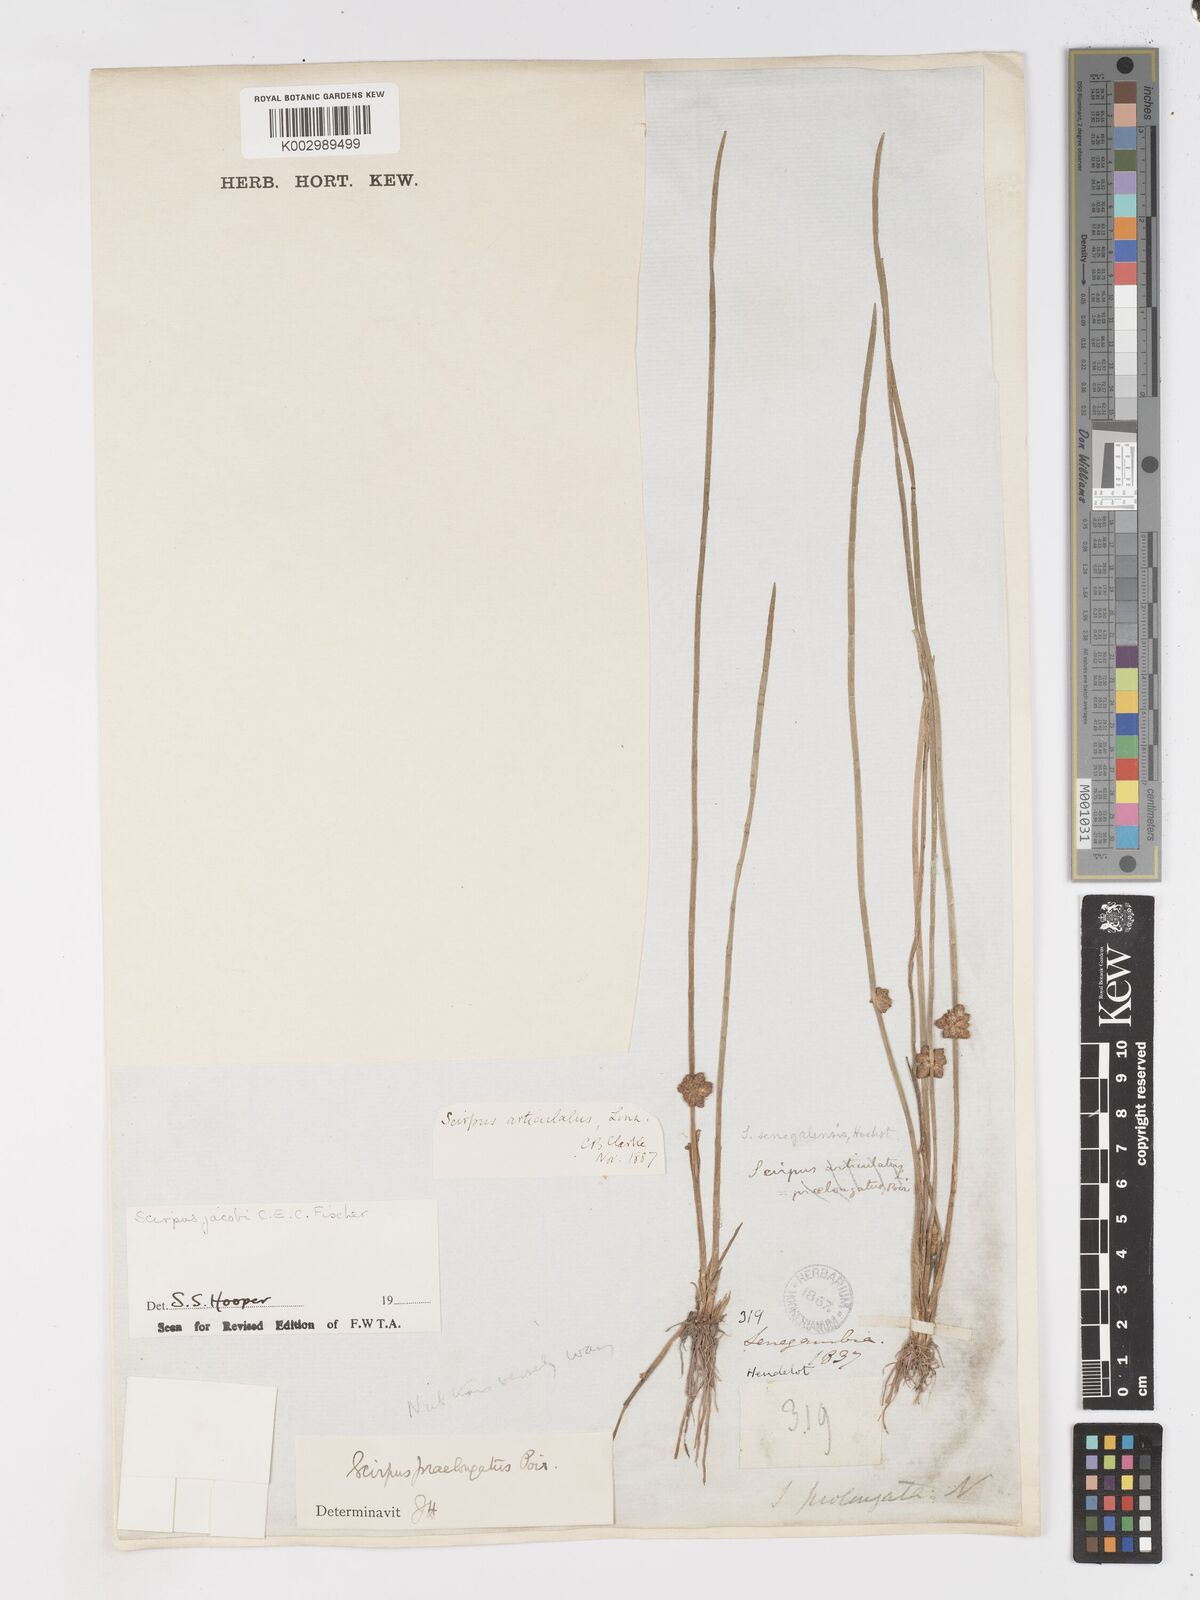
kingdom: Plantae
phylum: Tracheophyta
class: Liliopsida
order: Poales
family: Cyperaceae
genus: Schoenoplectiella
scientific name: Schoenoplectiella senegalensis
